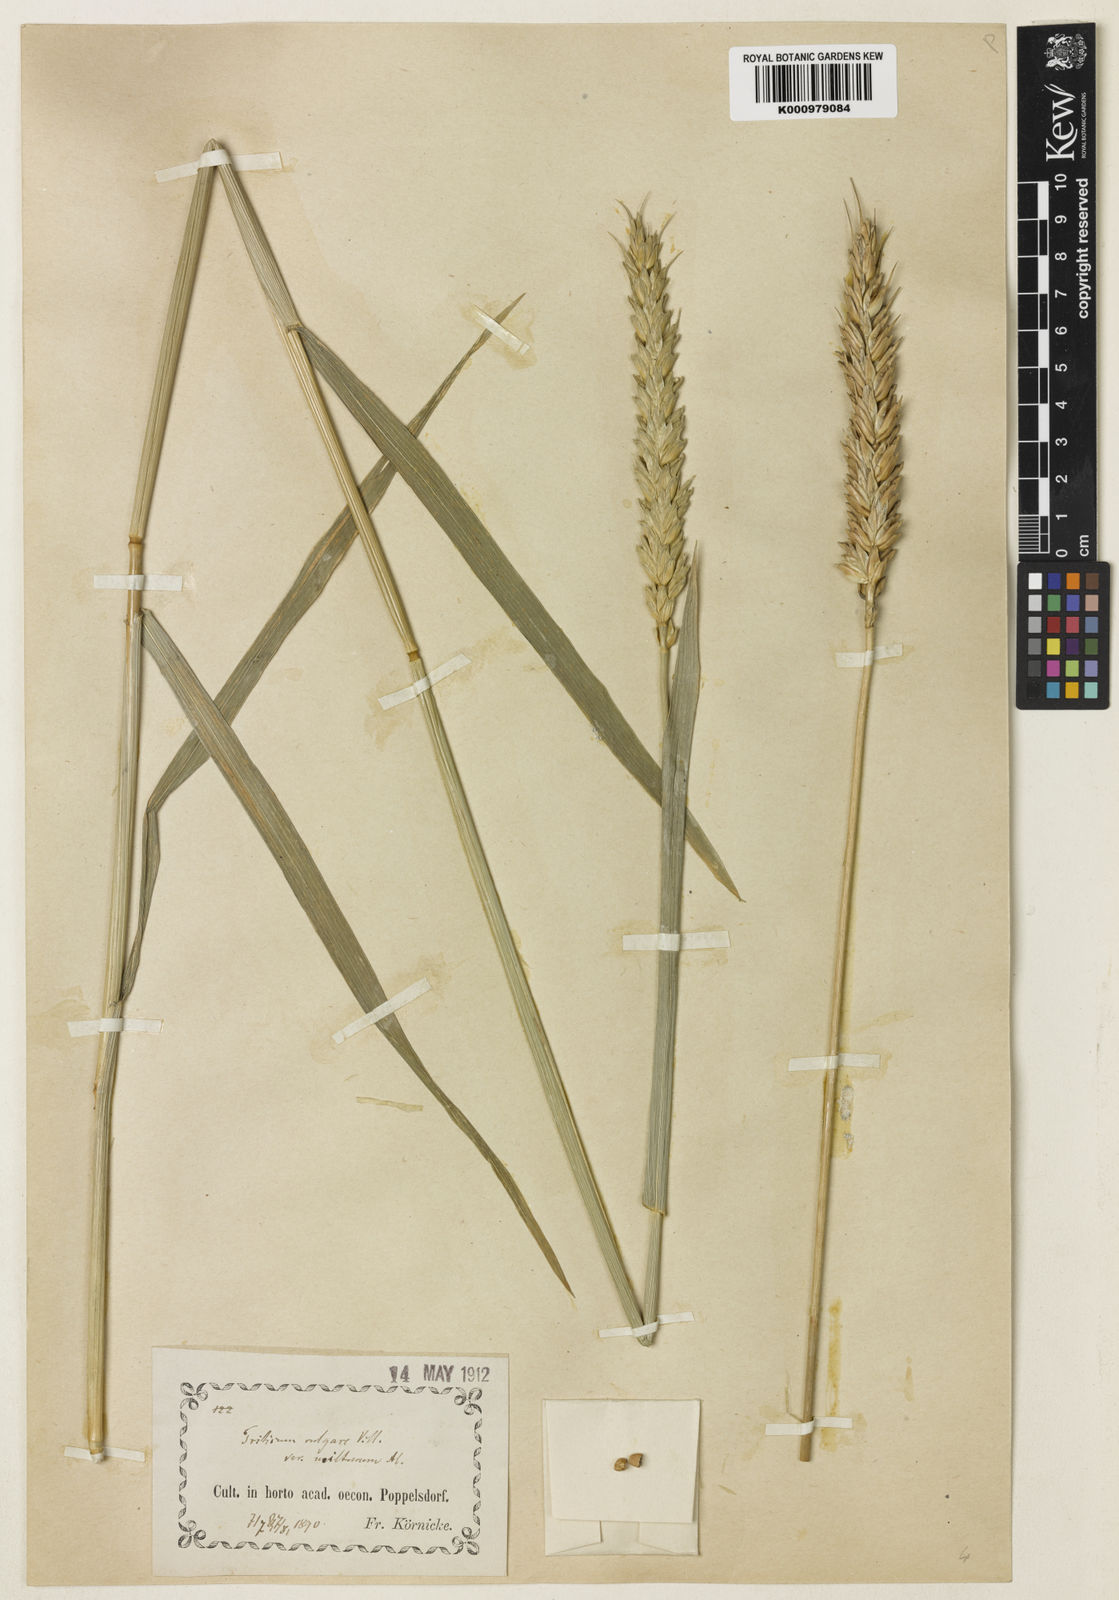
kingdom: Plantae
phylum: Tracheophyta
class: Liliopsida
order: Poales
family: Poaceae
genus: Triticum
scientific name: Triticum aestivum
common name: Common wheat
